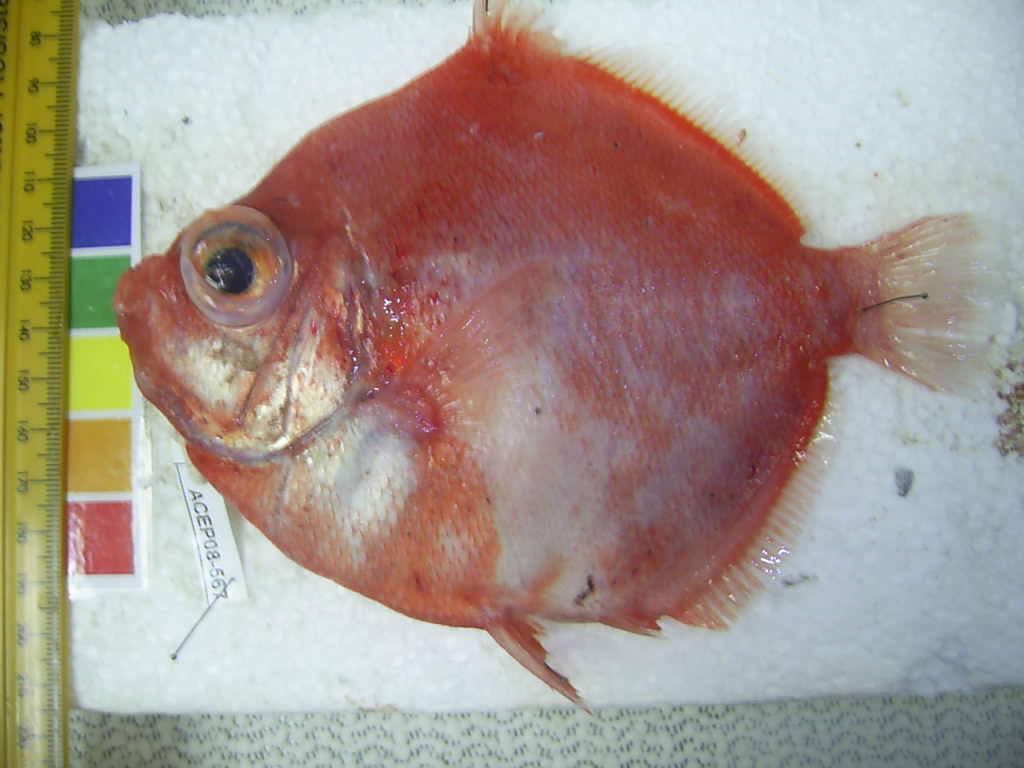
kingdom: Animalia
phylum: Chordata
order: Perciformes
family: Caproidae
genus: Antigonia
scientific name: Antigonia
